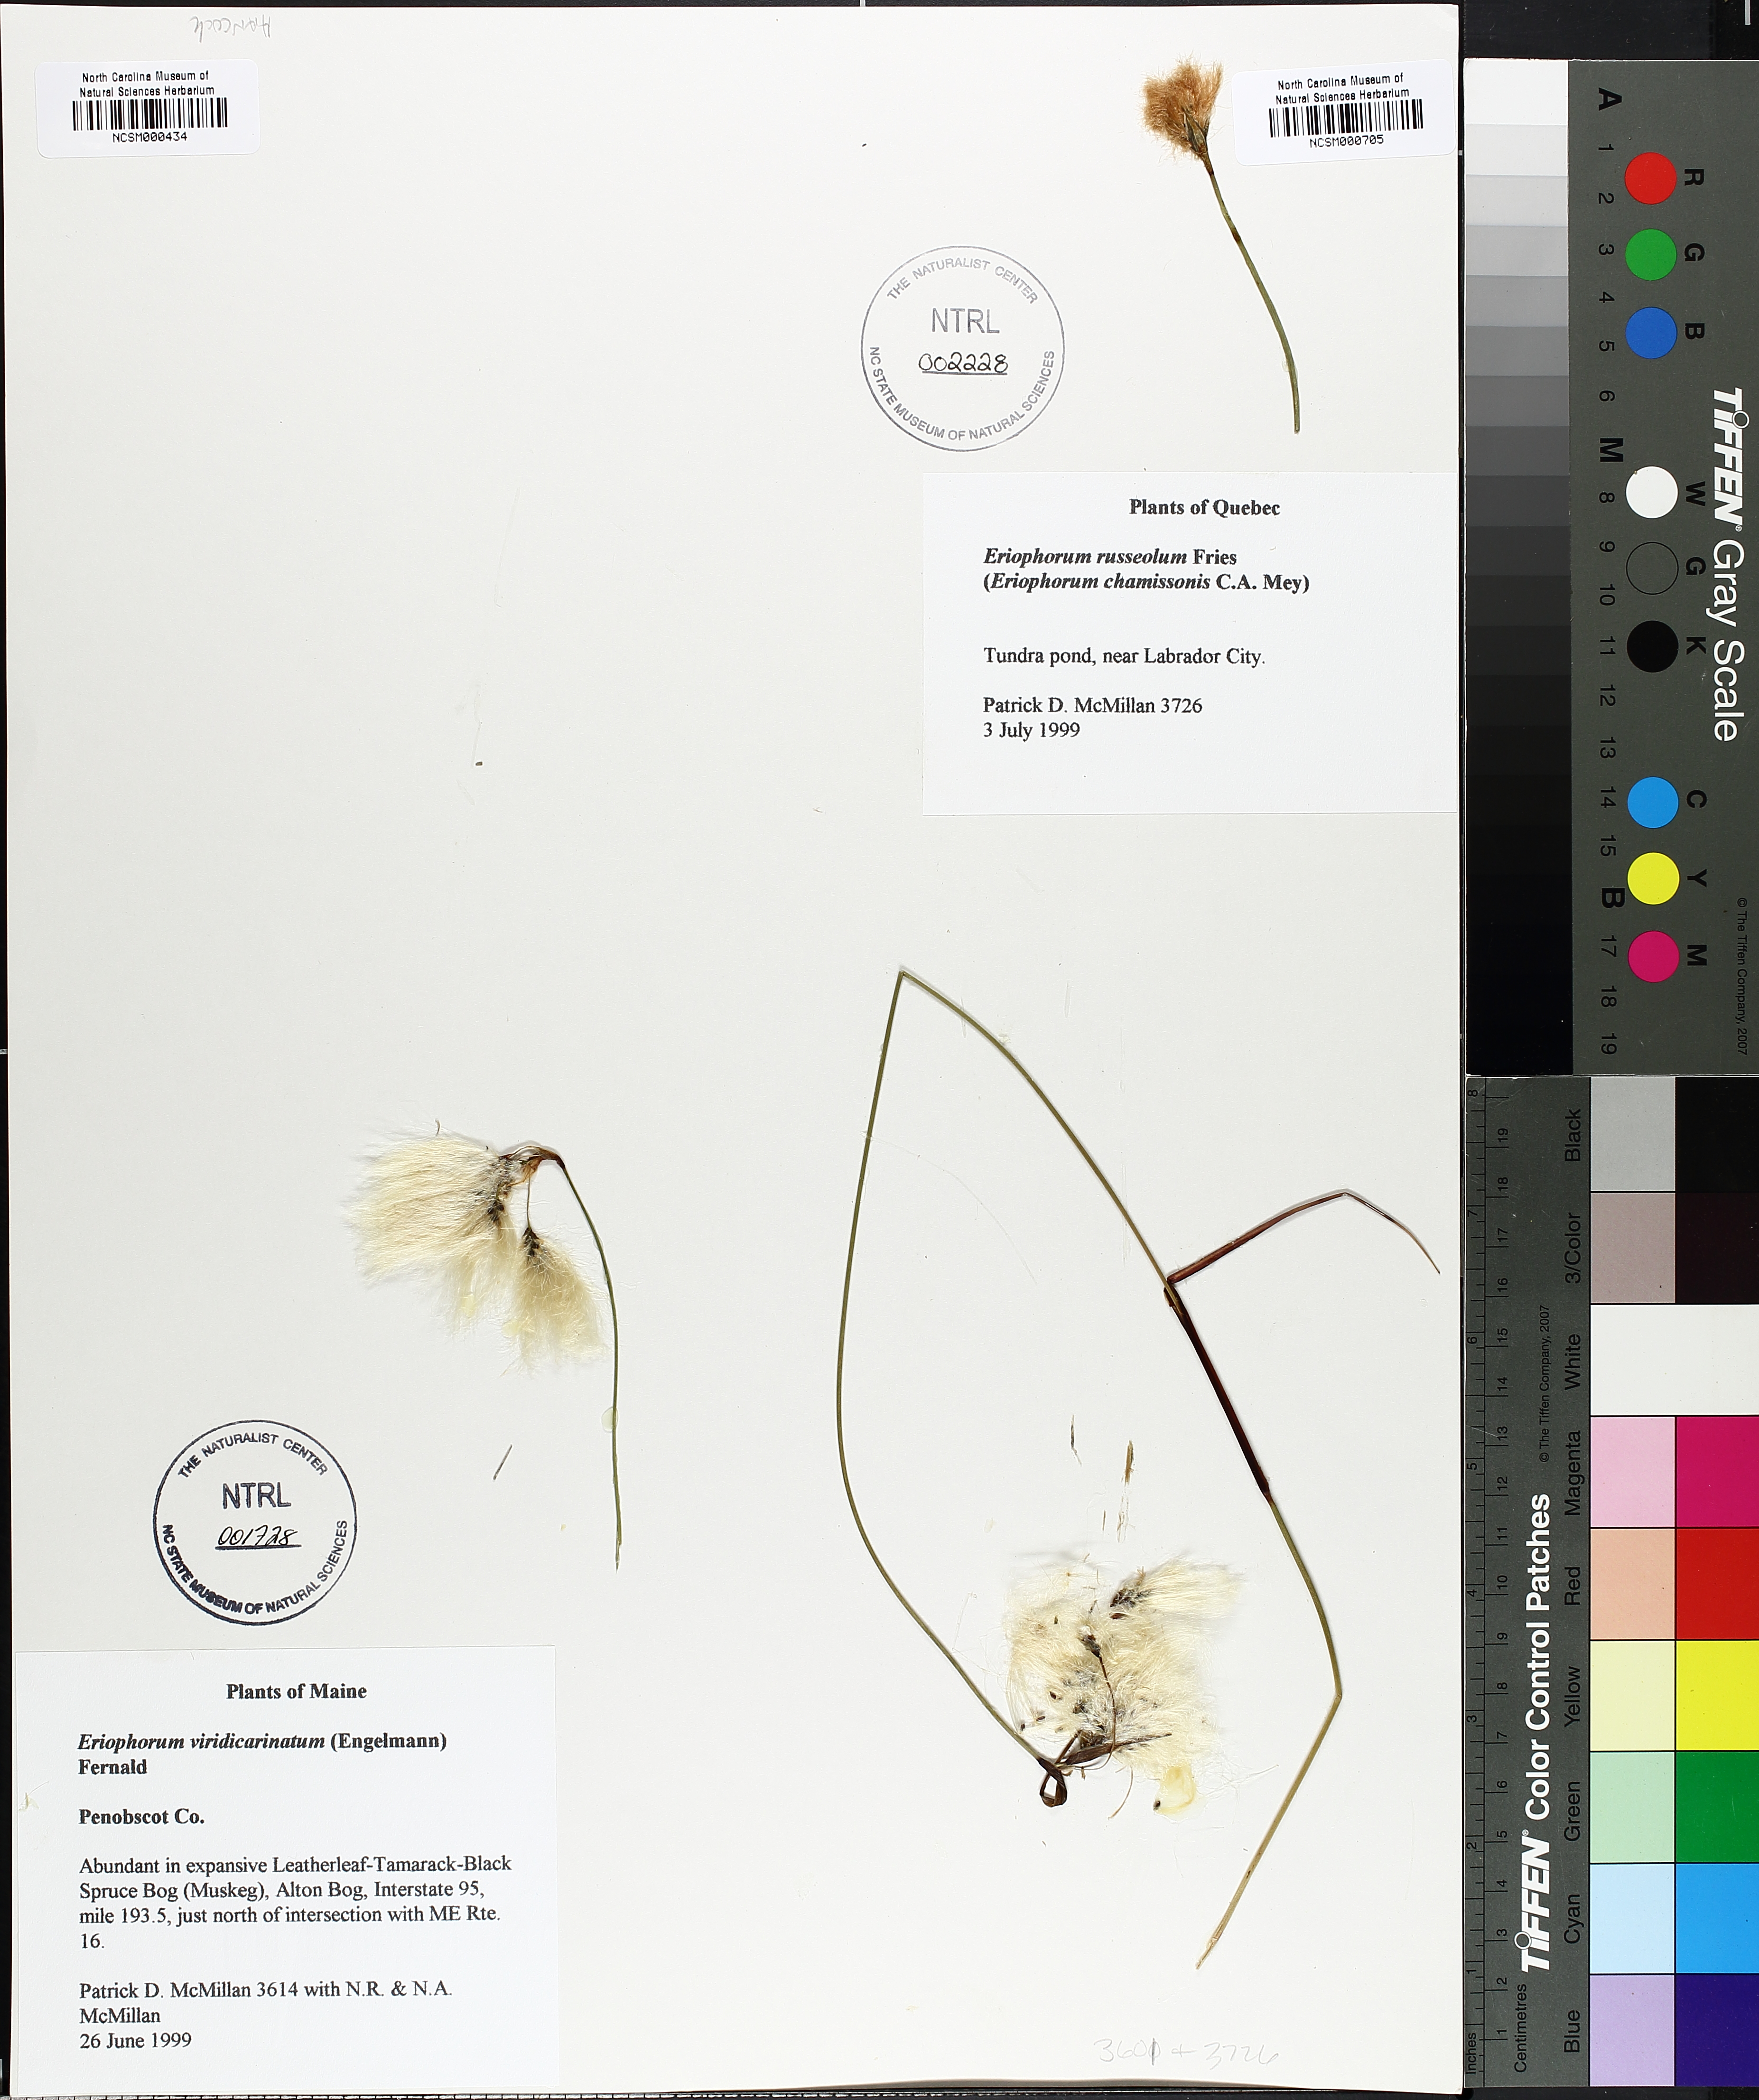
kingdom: Plantae
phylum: Tracheophyta
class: Liliopsida
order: Poales
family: Cyperaceae
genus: Eriophorum
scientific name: Eriophorum russeolum
